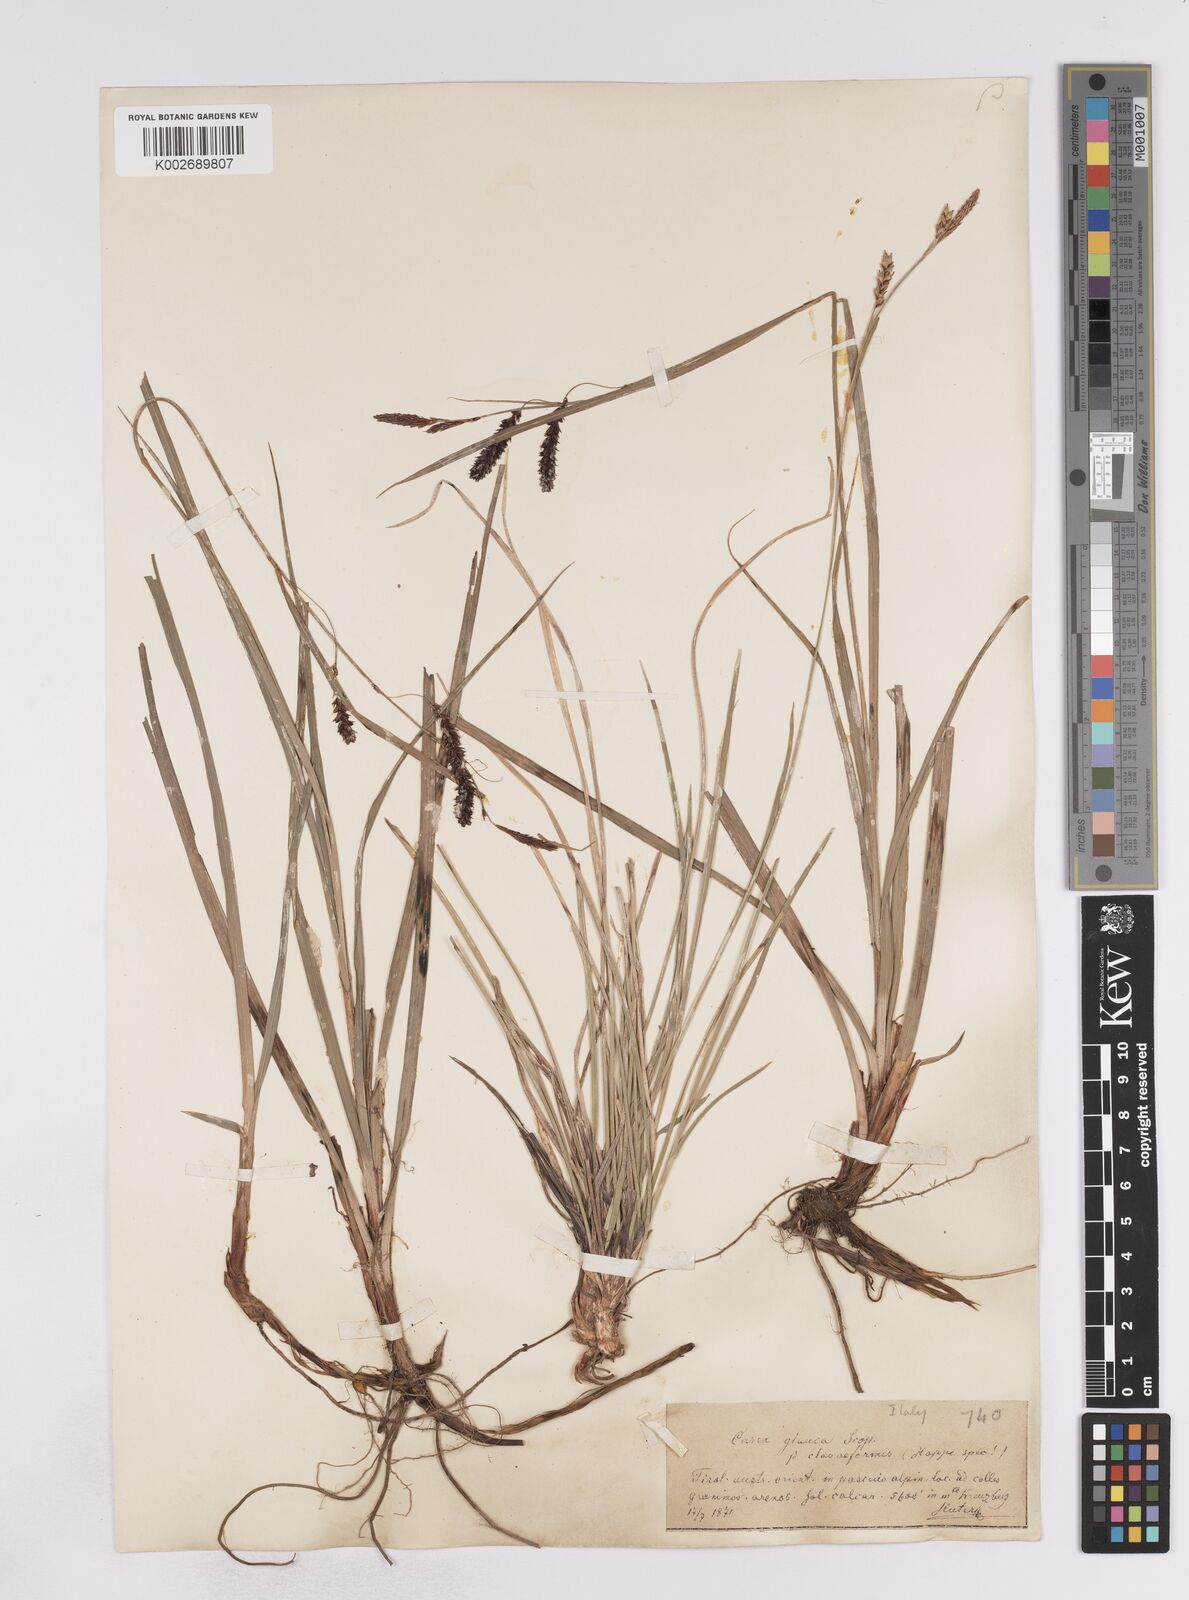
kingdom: Plantae
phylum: Tracheophyta
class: Liliopsida
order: Poales
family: Cyperaceae
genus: Carex
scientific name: Carex flacca
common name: Glaucous sedge
